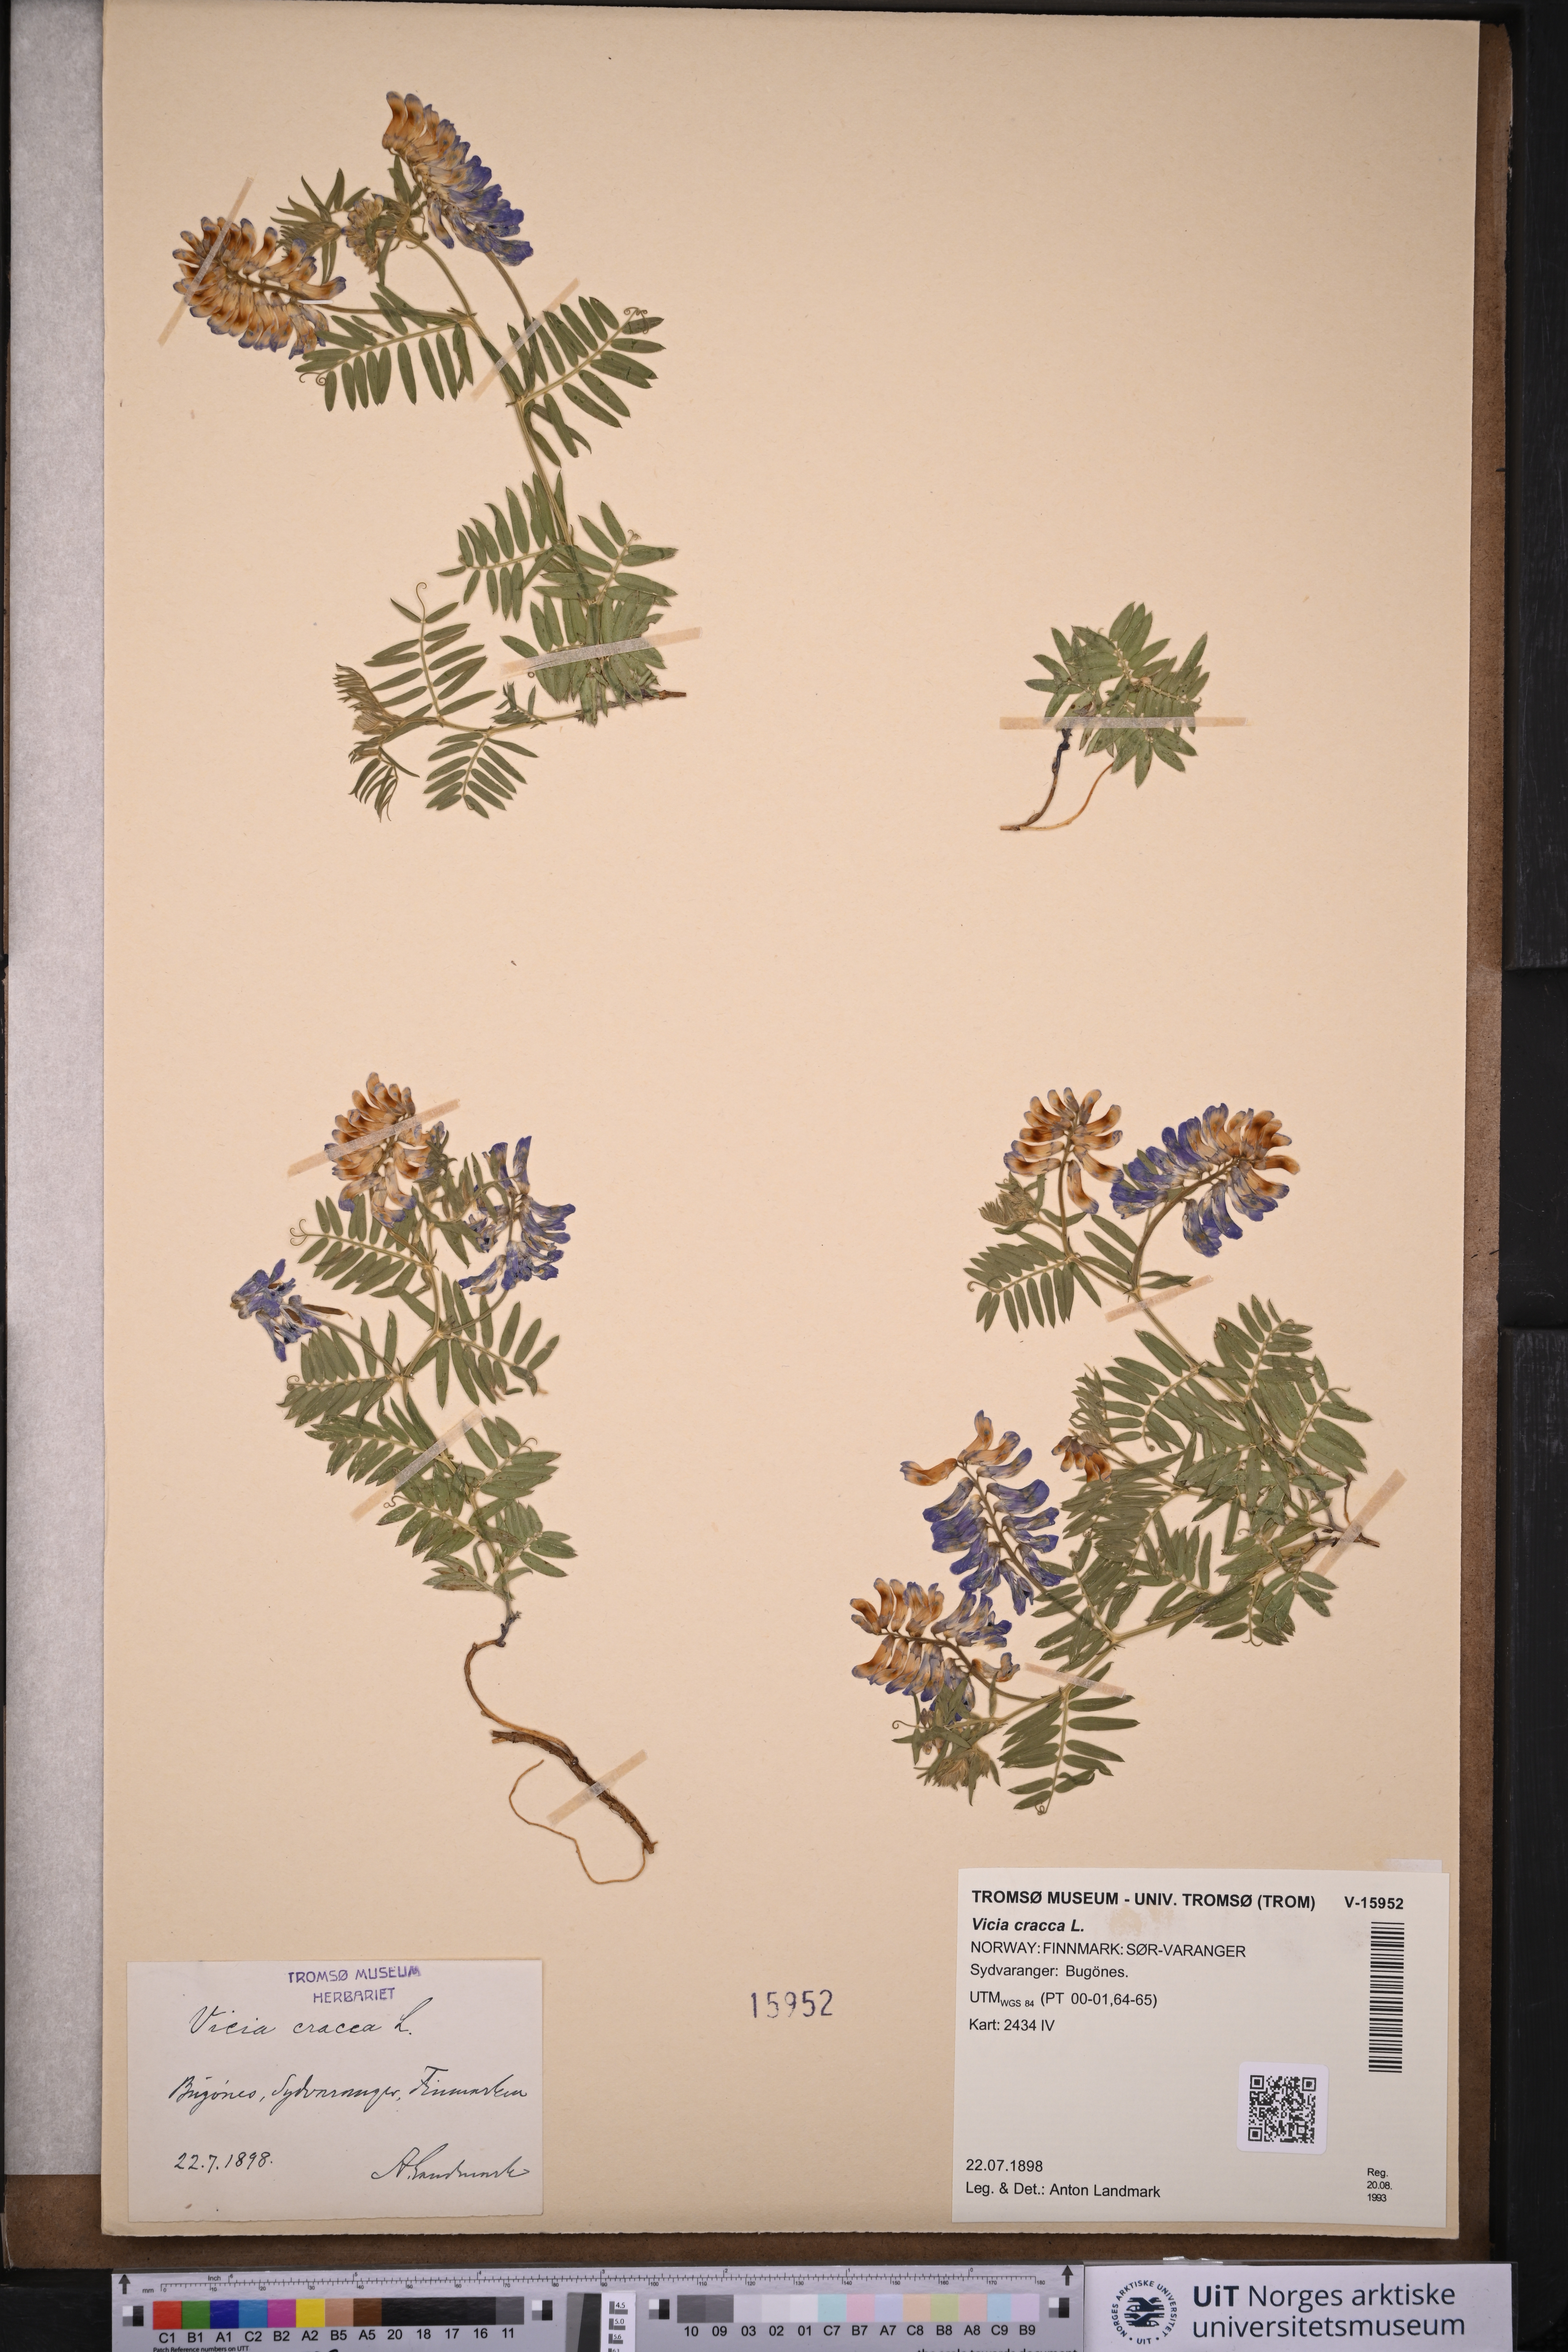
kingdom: Plantae
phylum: Tracheophyta
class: Magnoliopsida
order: Fabales
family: Fabaceae
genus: Vicia
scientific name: Vicia cracca
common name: Bird vetch
